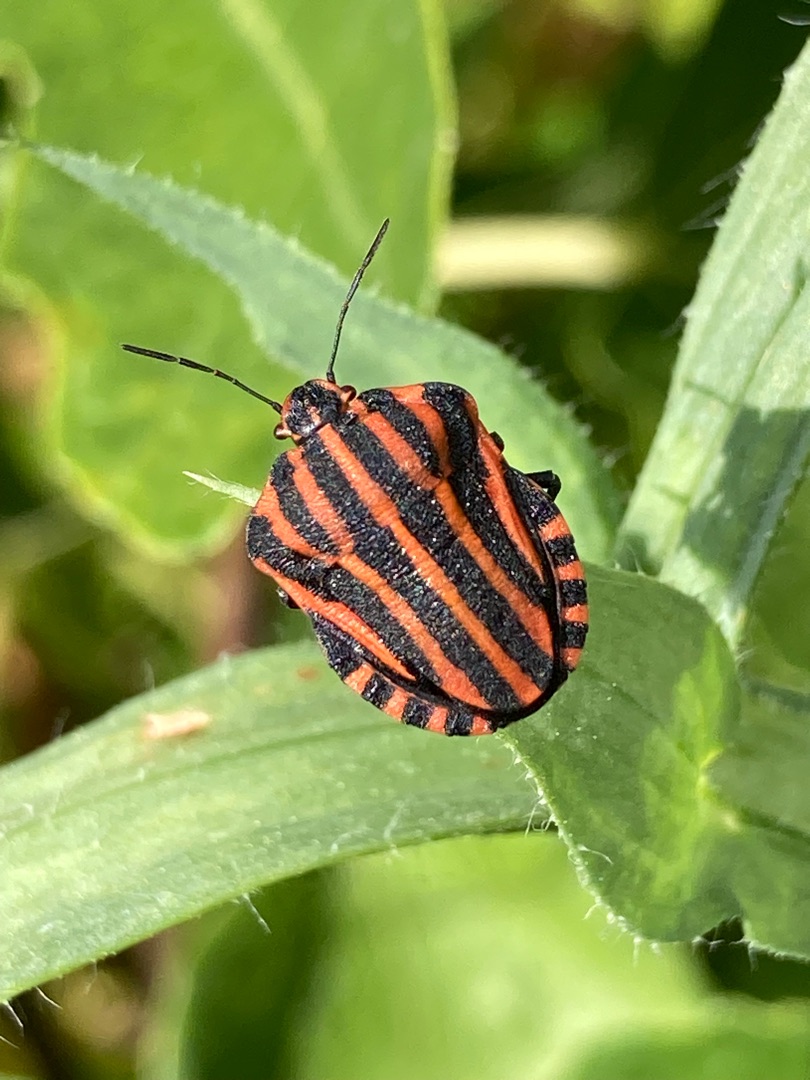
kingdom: Animalia
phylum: Arthropoda
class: Insecta
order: Hemiptera
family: Pentatomidae
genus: Graphosoma
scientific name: Graphosoma italicum
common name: Stribetæge
